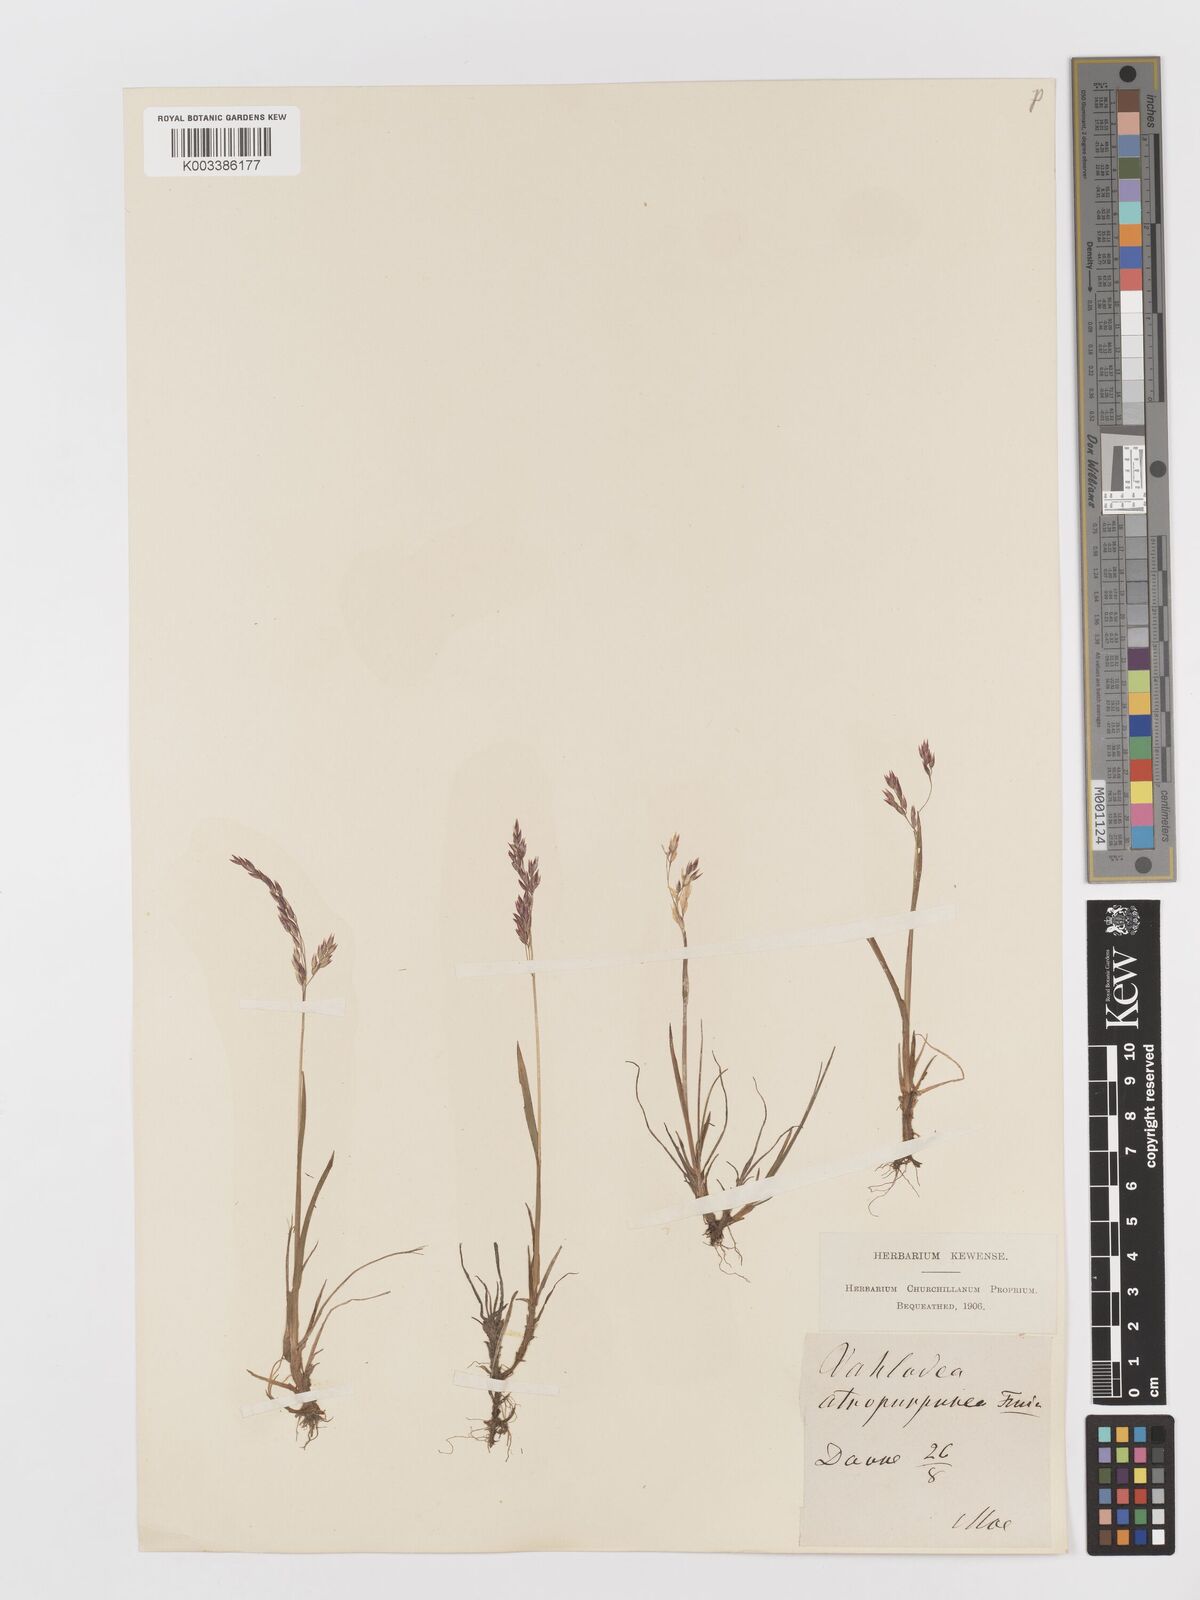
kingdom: Plantae
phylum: Tracheophyta
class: Liliopsida
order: Poales
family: Poaceae
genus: Vahlodea
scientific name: Vahlodea atropurpurea
